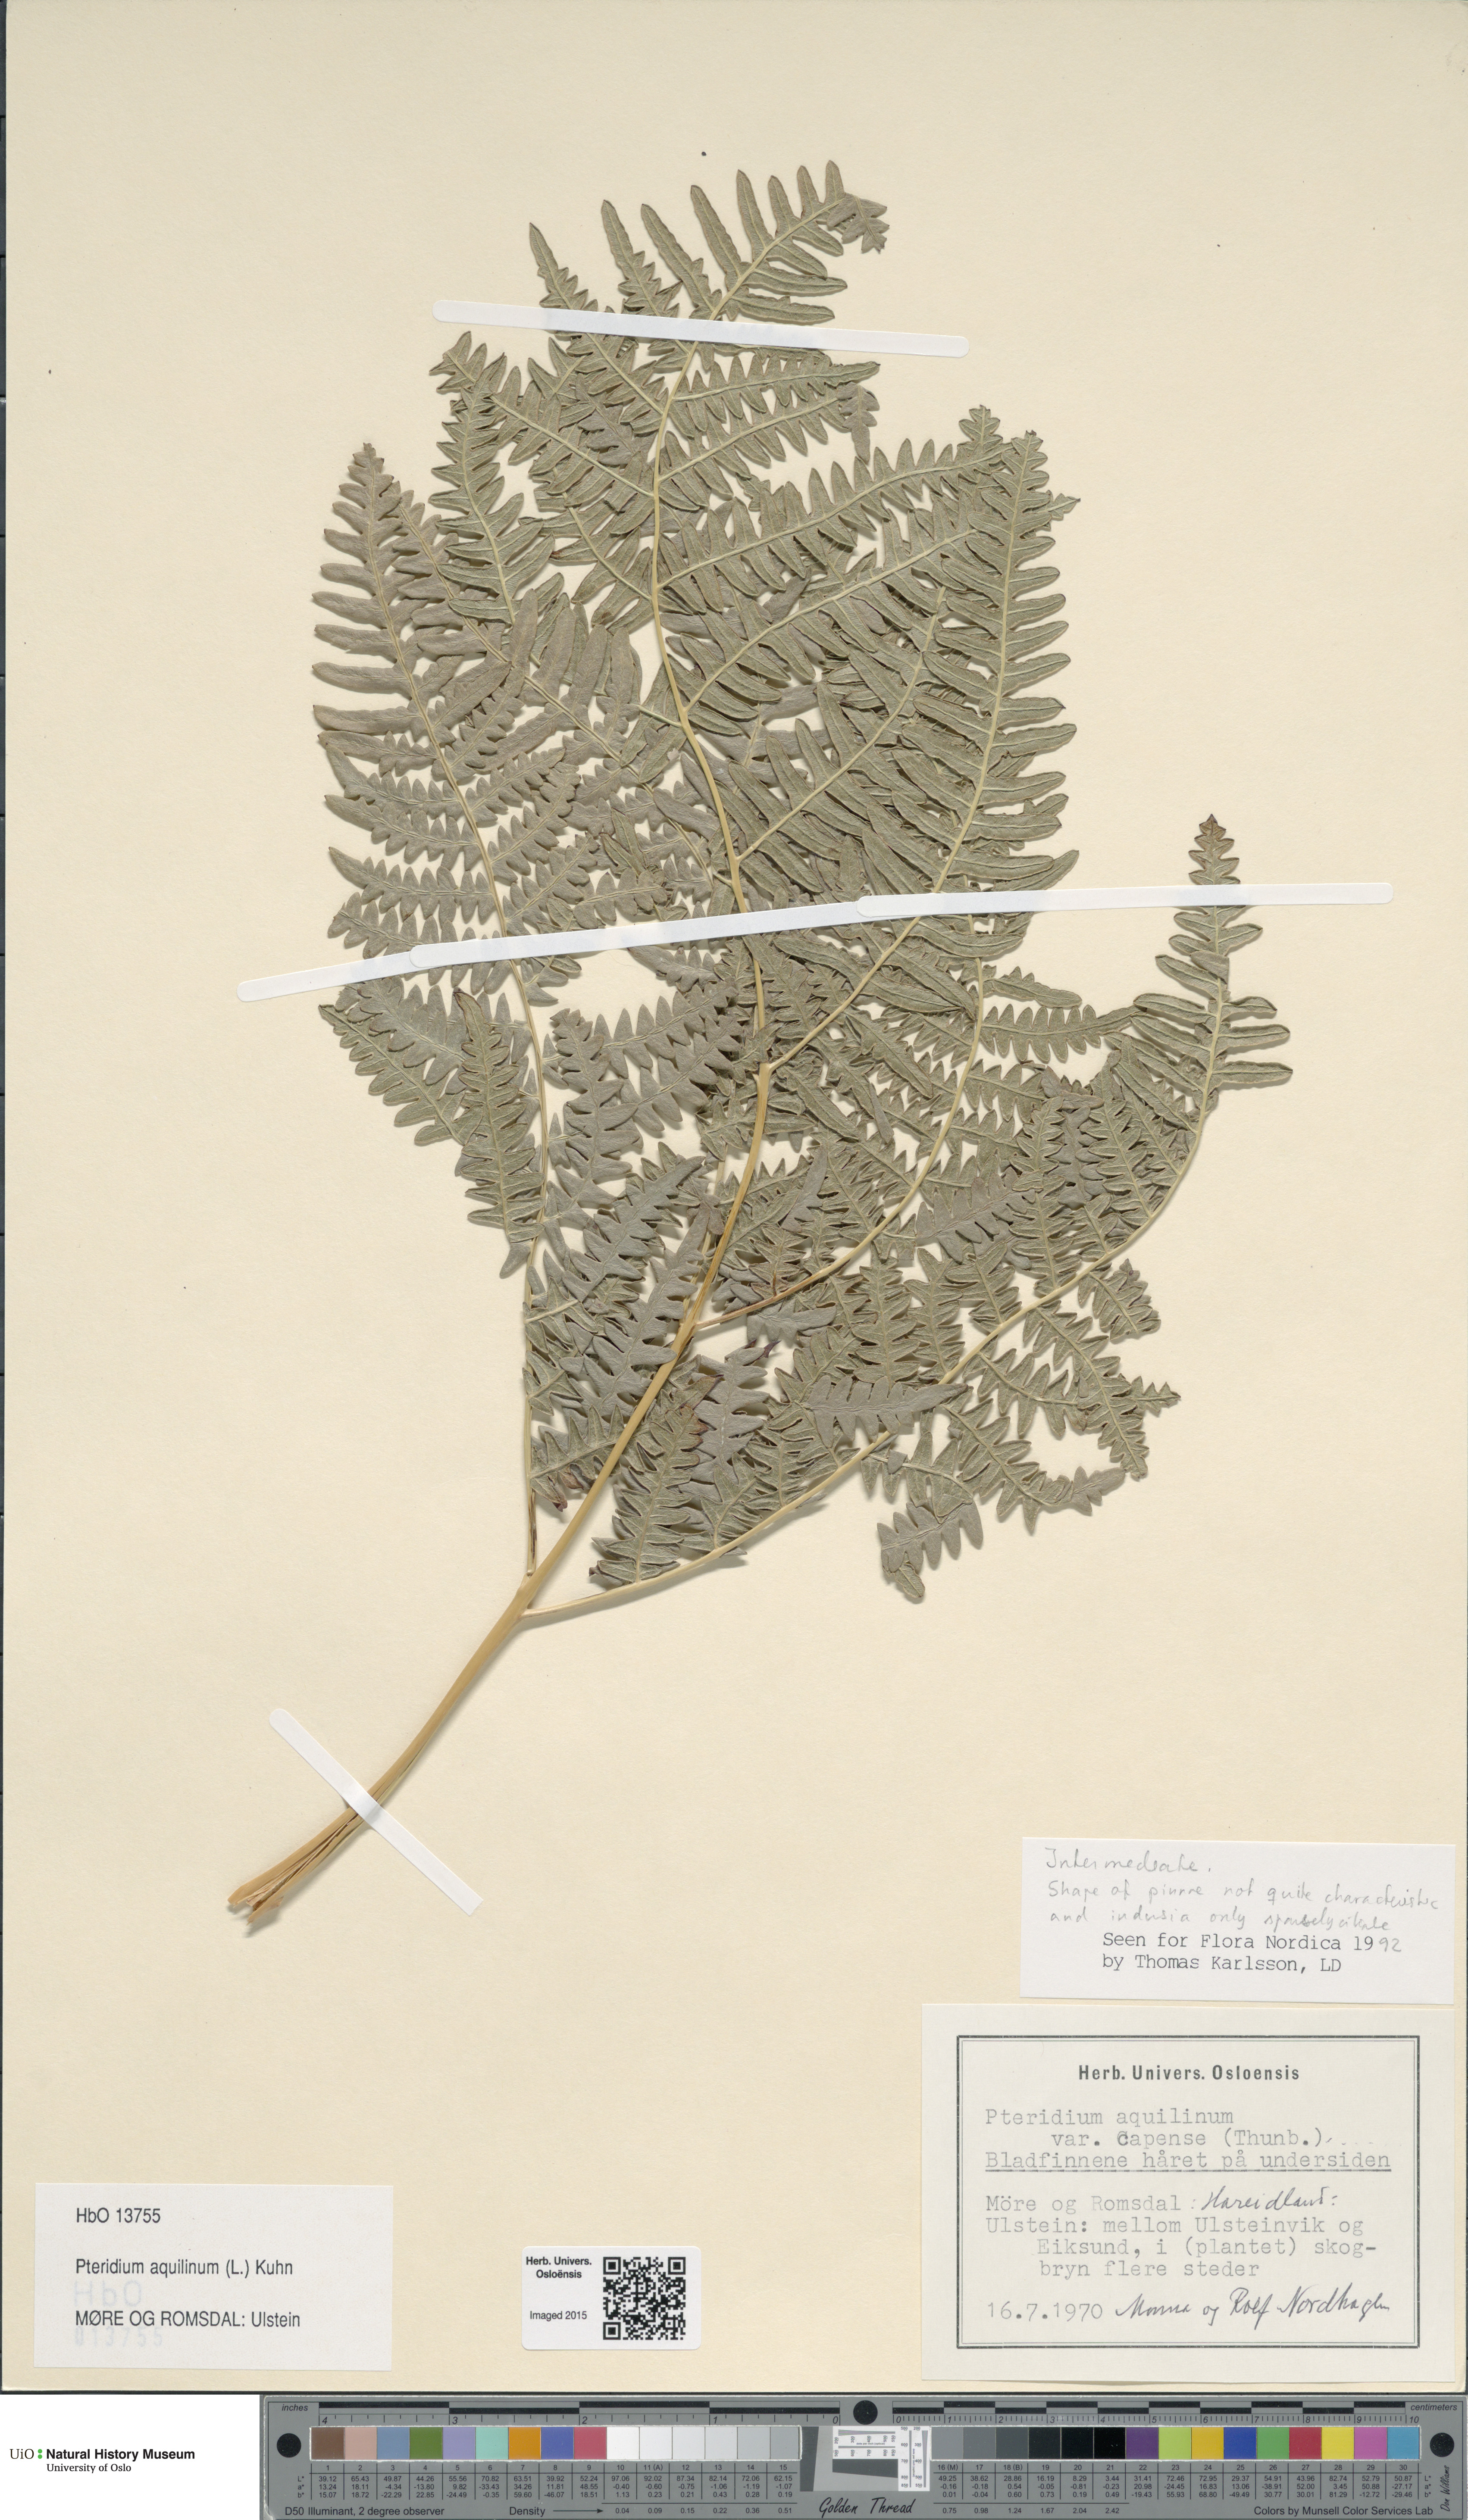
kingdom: Plantae
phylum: Tracheophyta
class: Polypodiopsida
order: Polypodiales
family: Dennstaedtiaceae
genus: Pteridium
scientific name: Pteridium aquilinum
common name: Bracken
